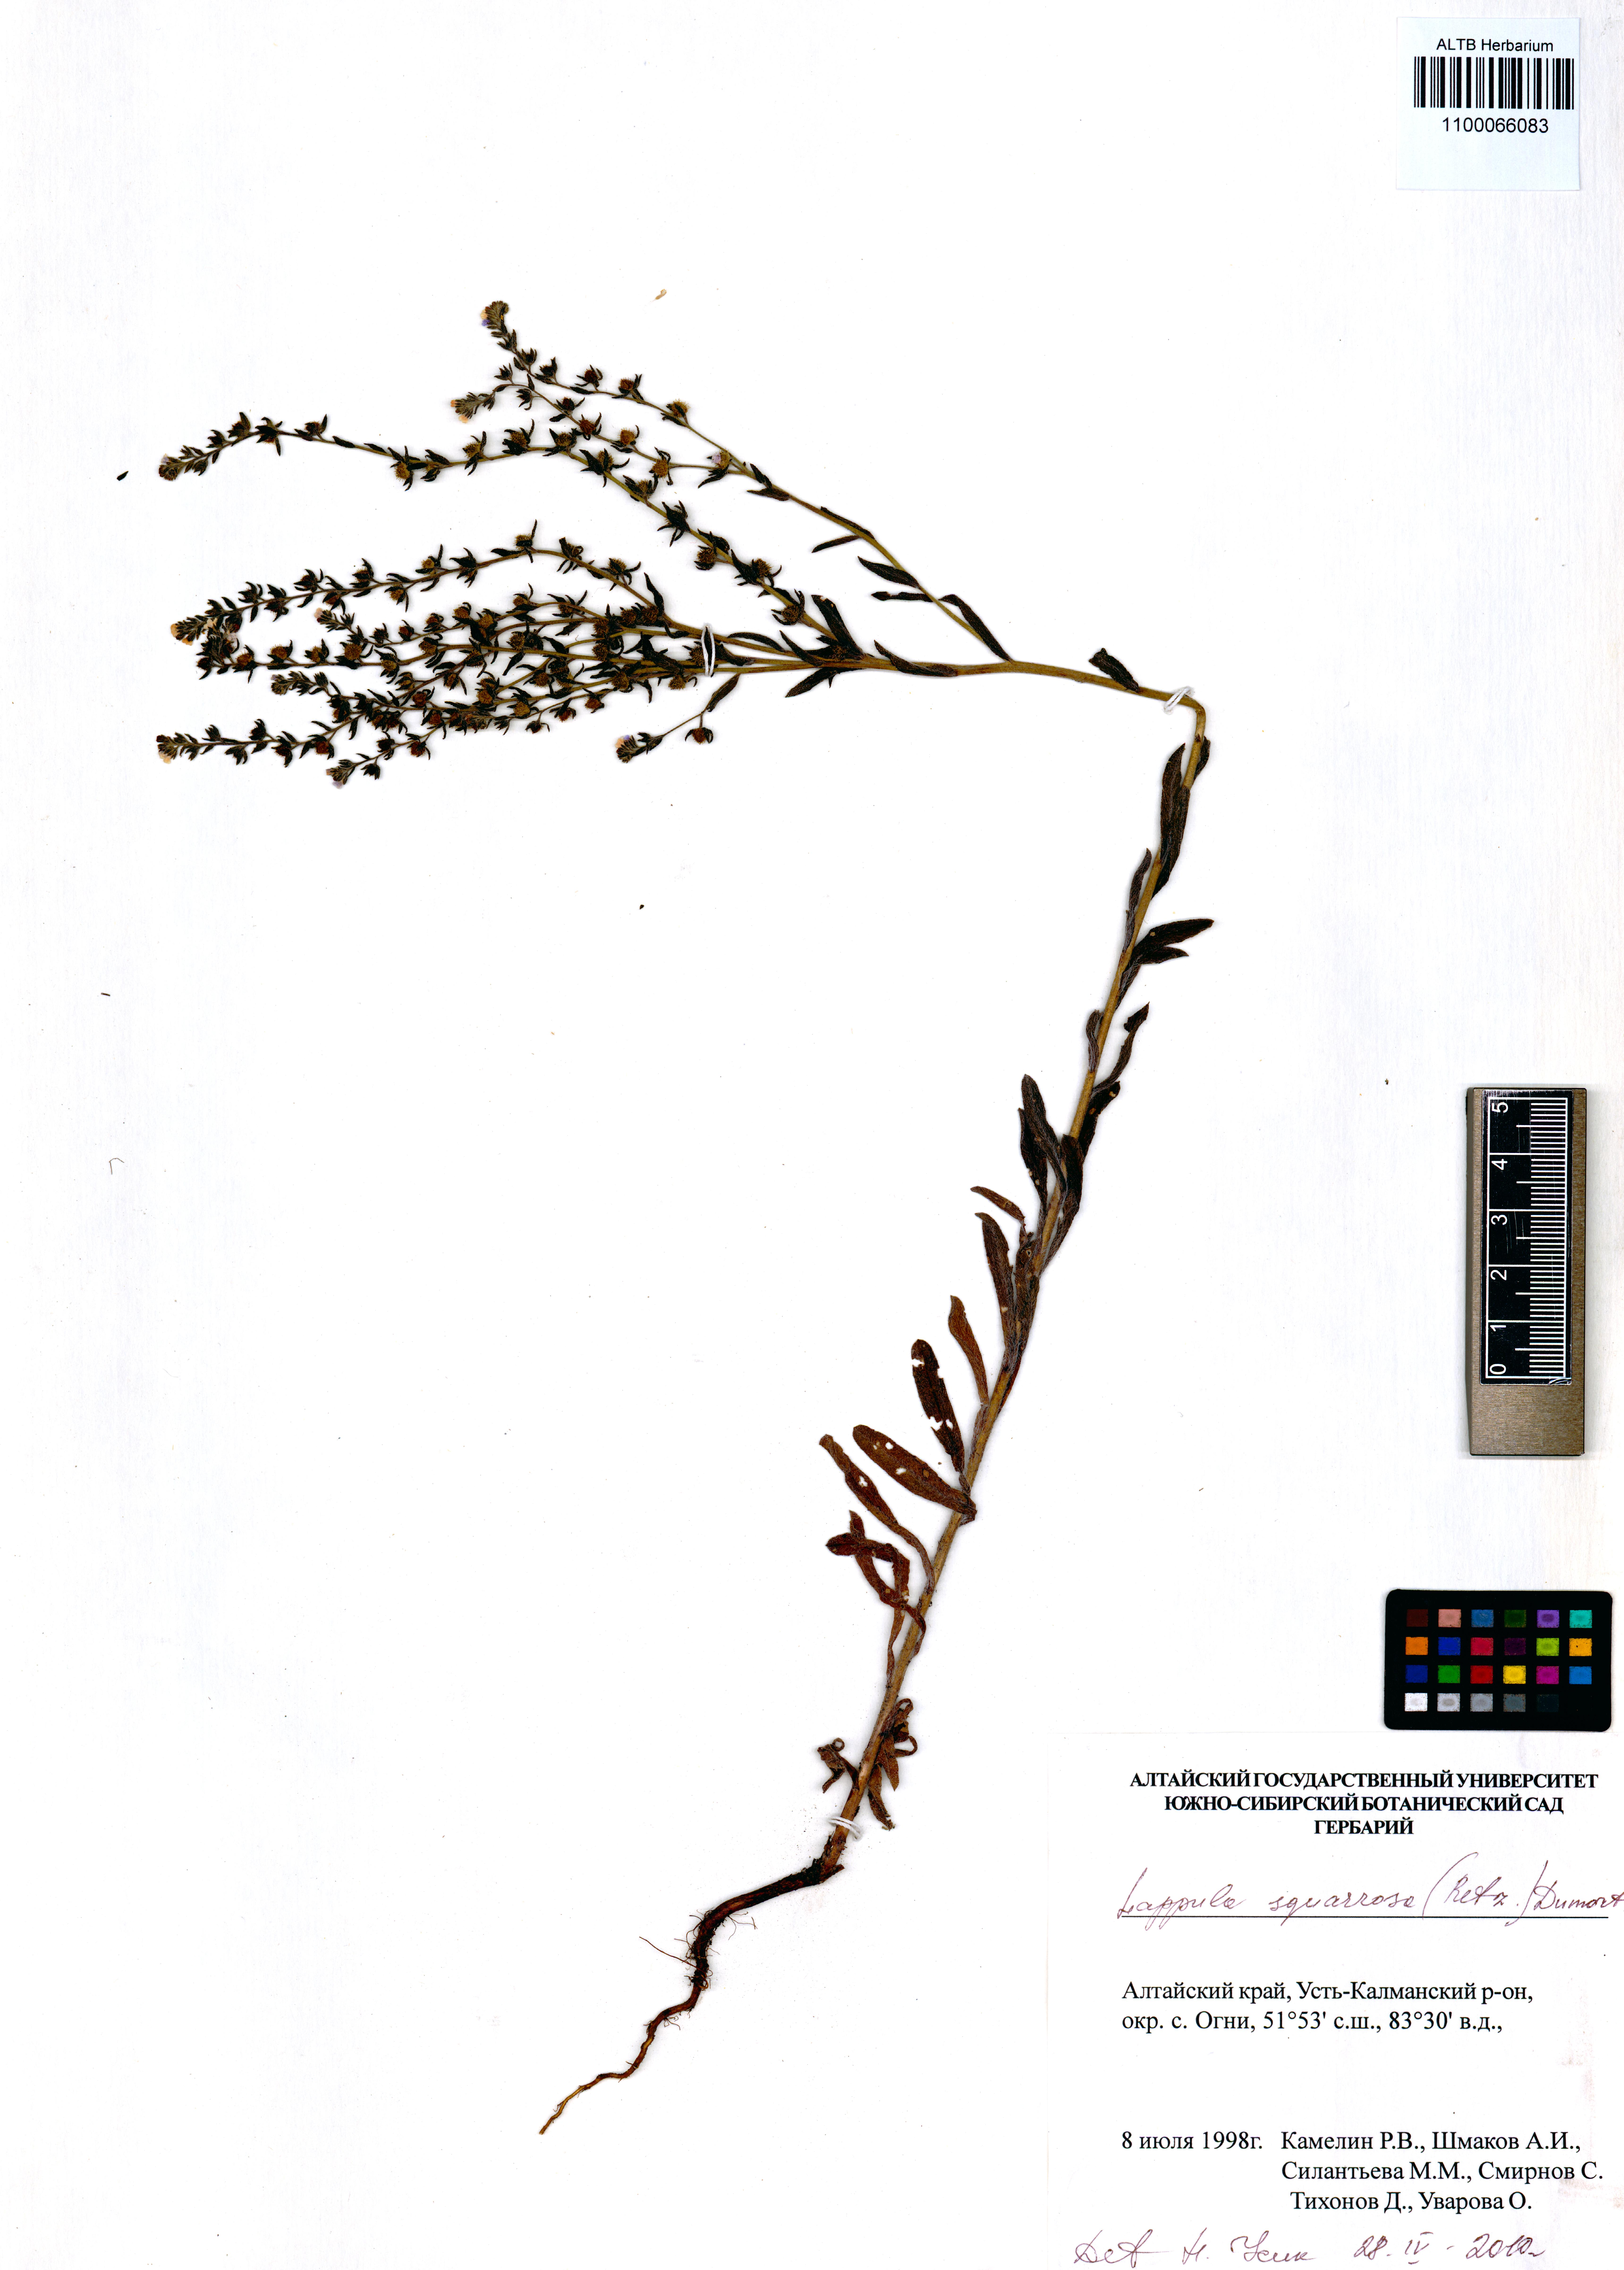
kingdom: Plantae
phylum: Tracheophyta
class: Magnoliopsida
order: Boraginales
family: Boraginaceae
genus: Lappula
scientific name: Lappula squarrosa
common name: European stickseed
